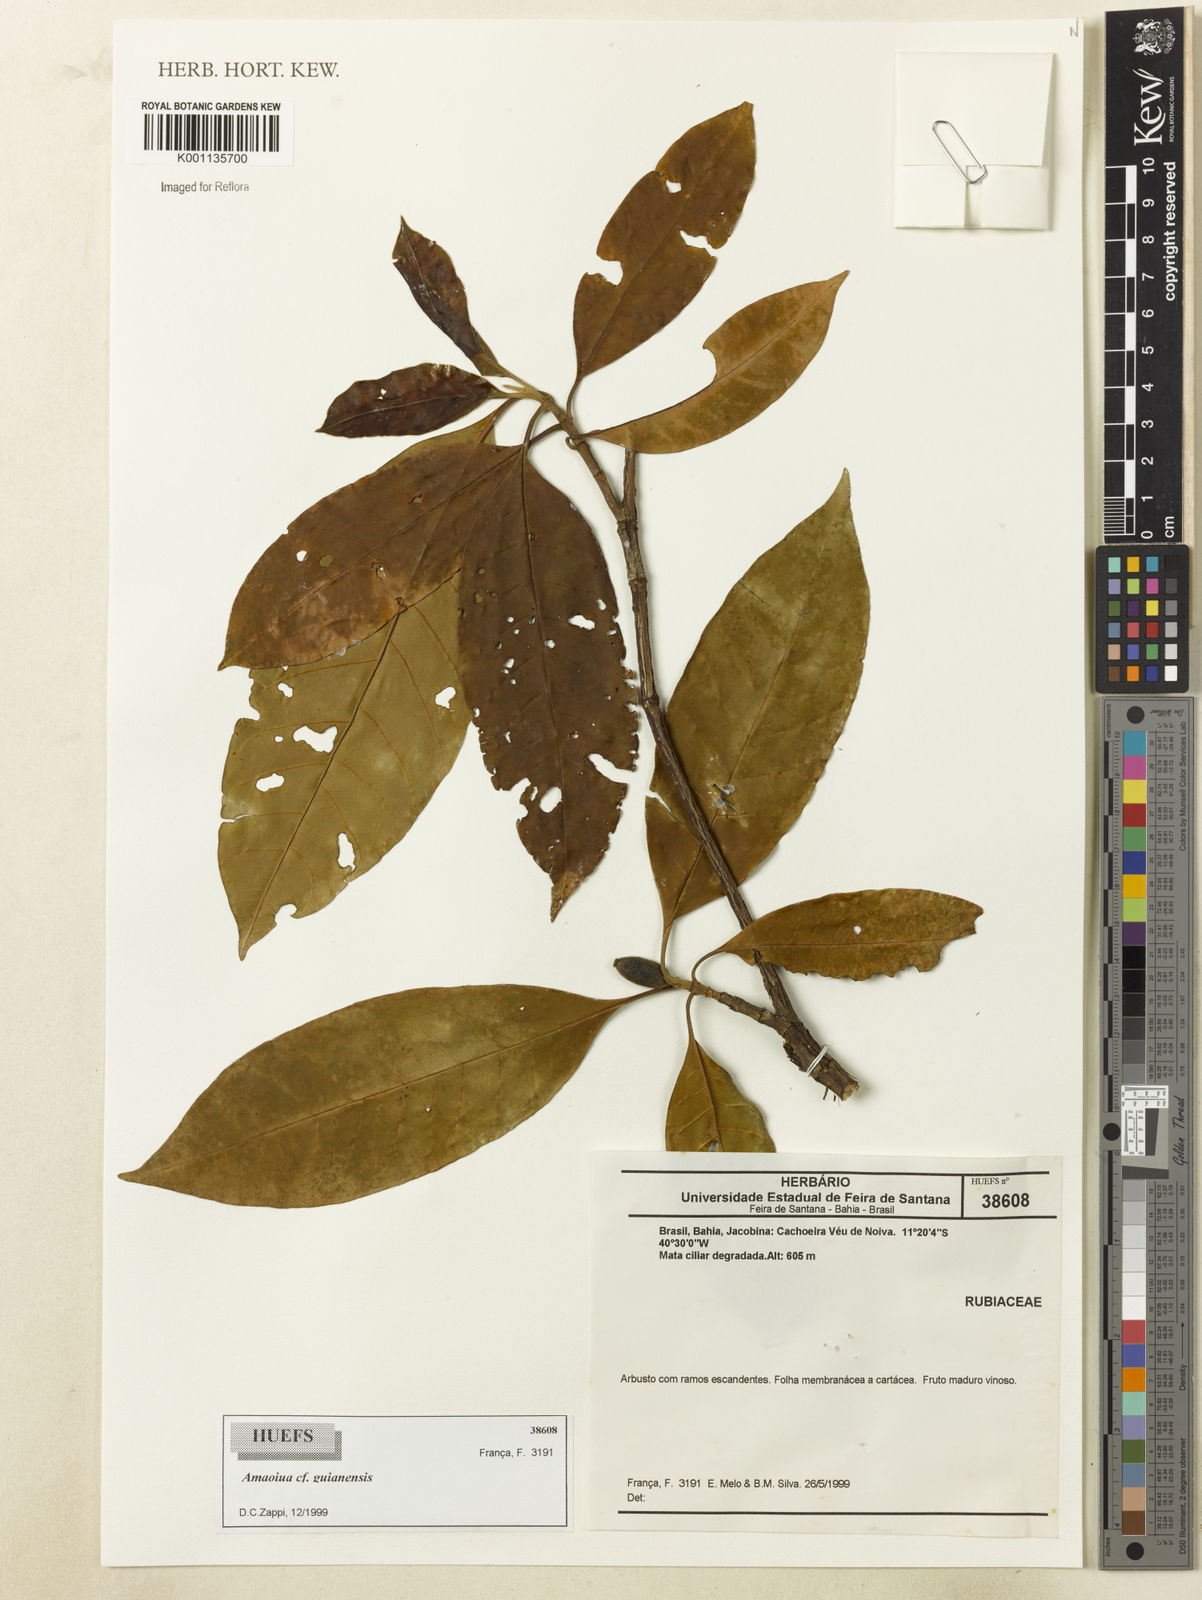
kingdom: Plantae
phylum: Tracheophyta
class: Magnoliopsida
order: Gentianales
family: Rubiaceae
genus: Amaioua
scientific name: Amaioua guianensis
